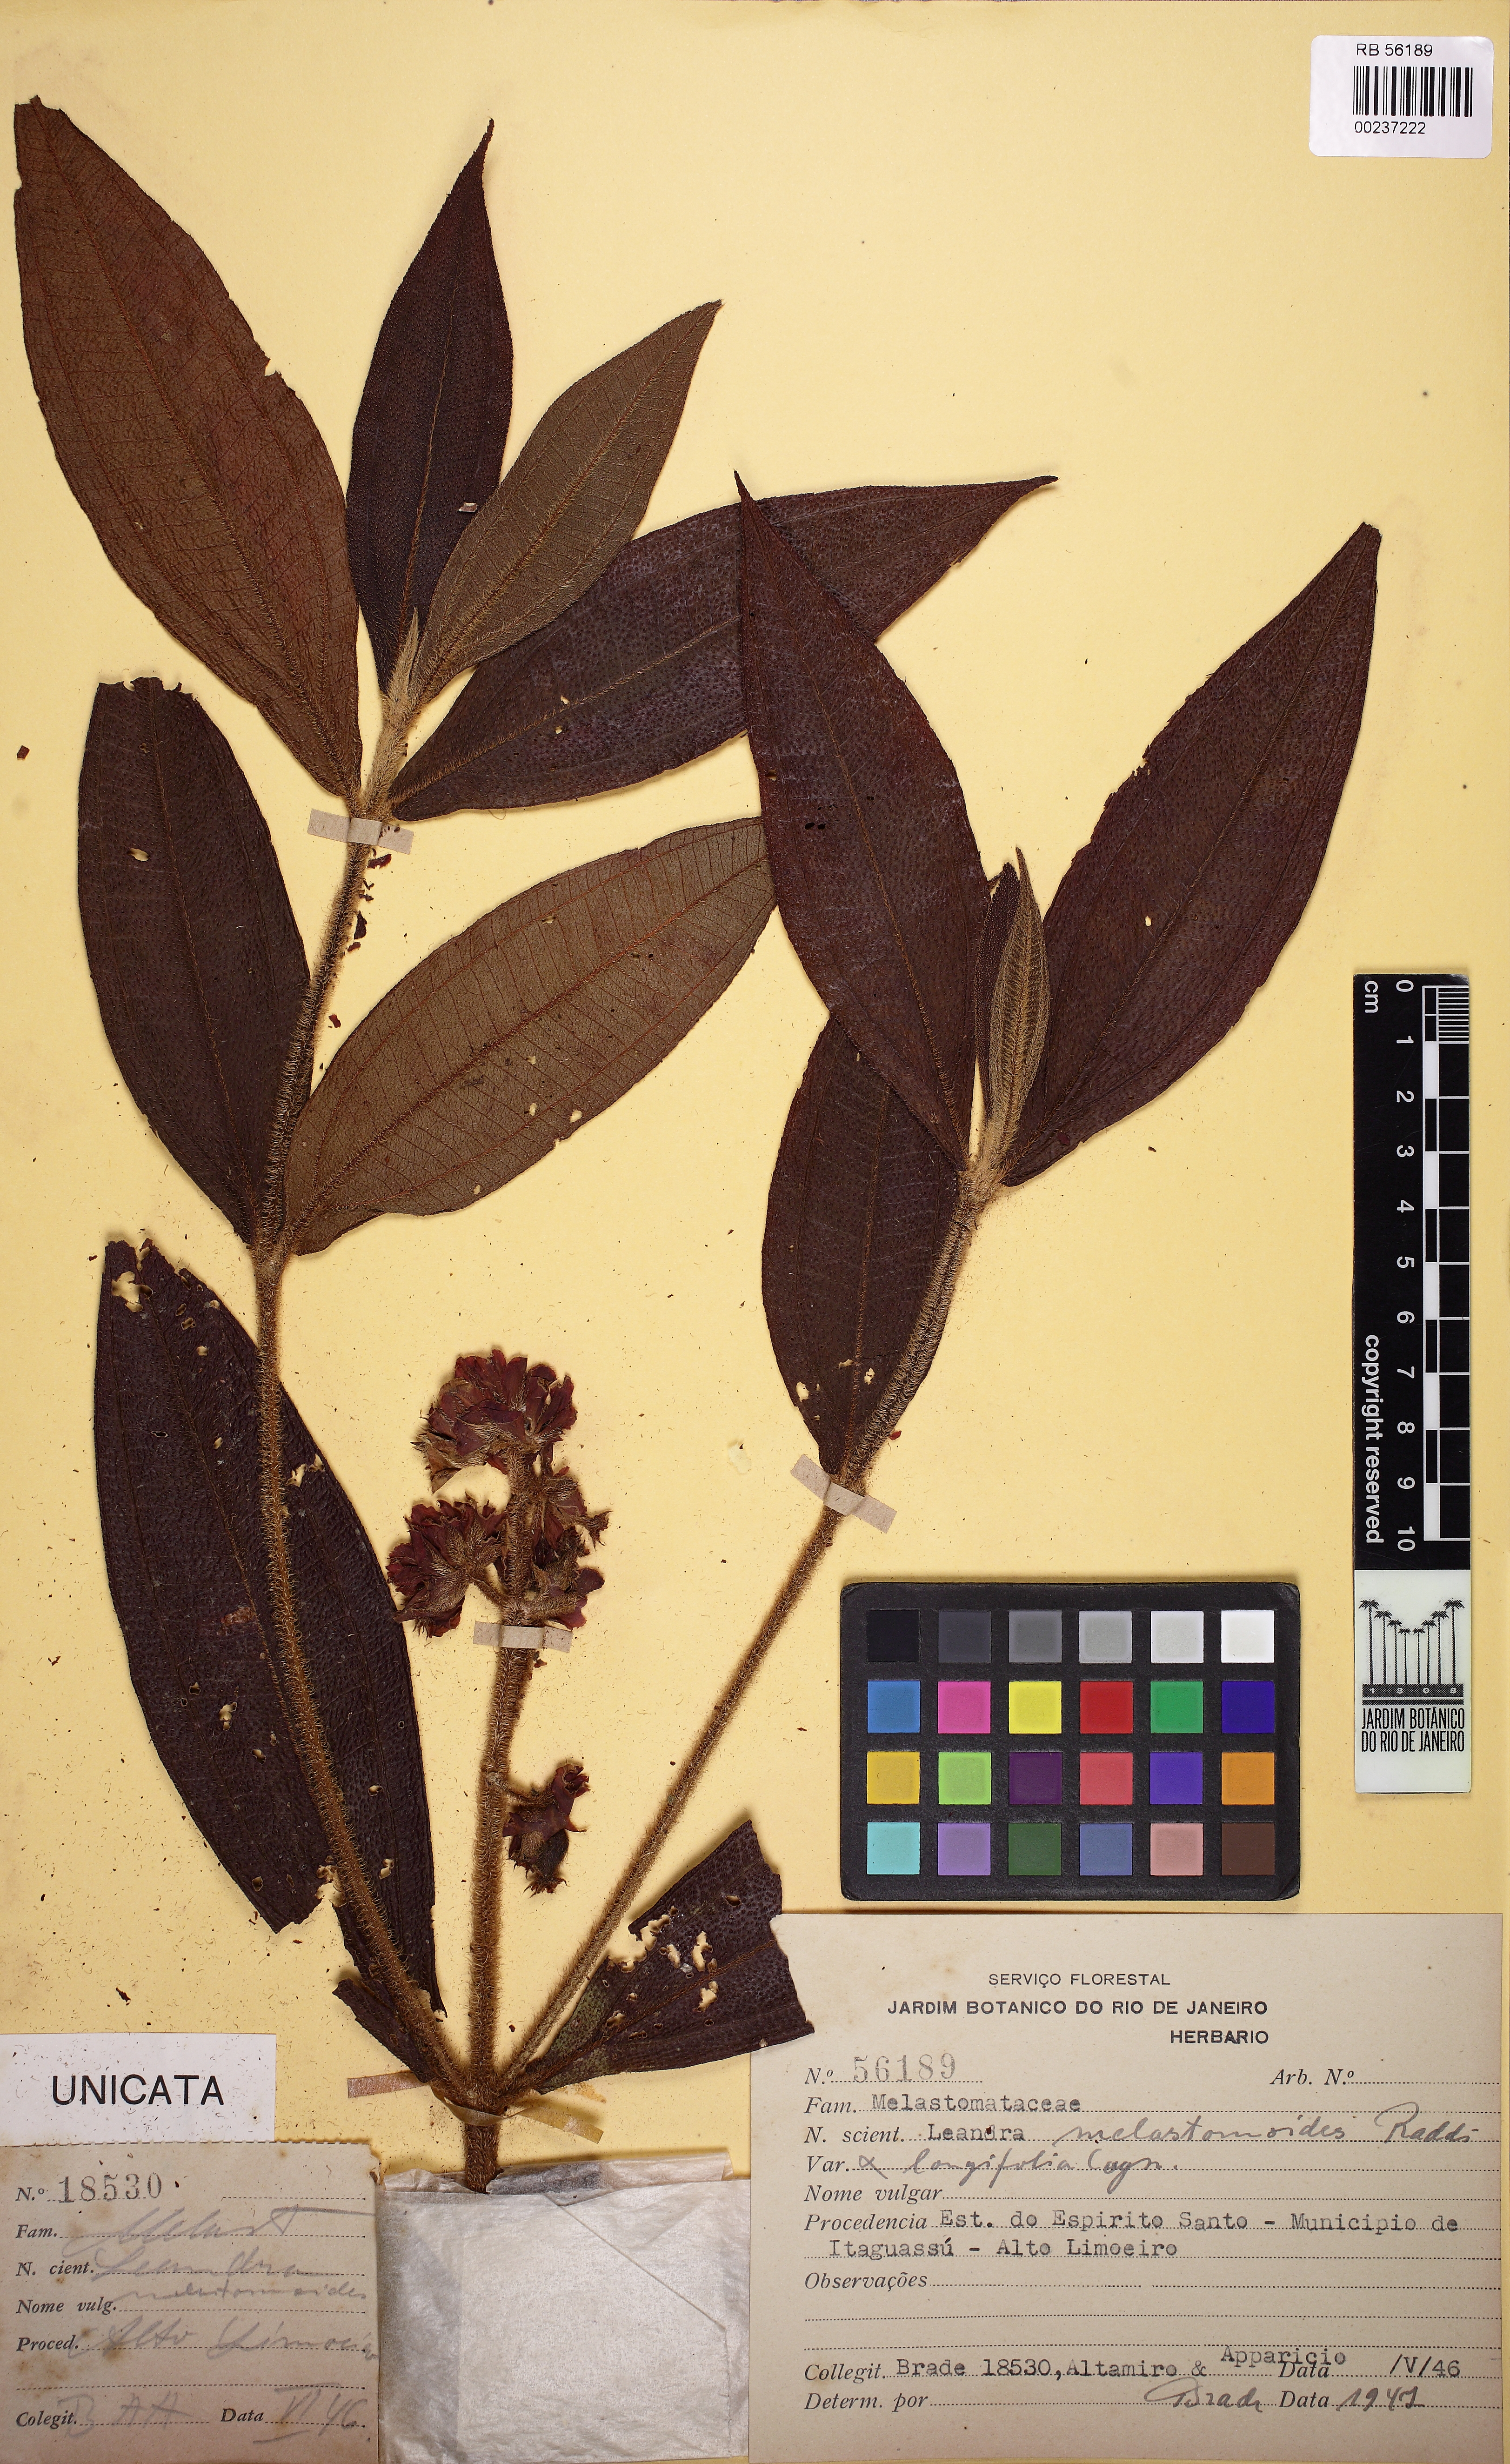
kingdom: Plantae
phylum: Tracheophyta
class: Magnoliopsida
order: Myrtales
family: Melastomataceae
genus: Miconia
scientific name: Miconia melastomoides
